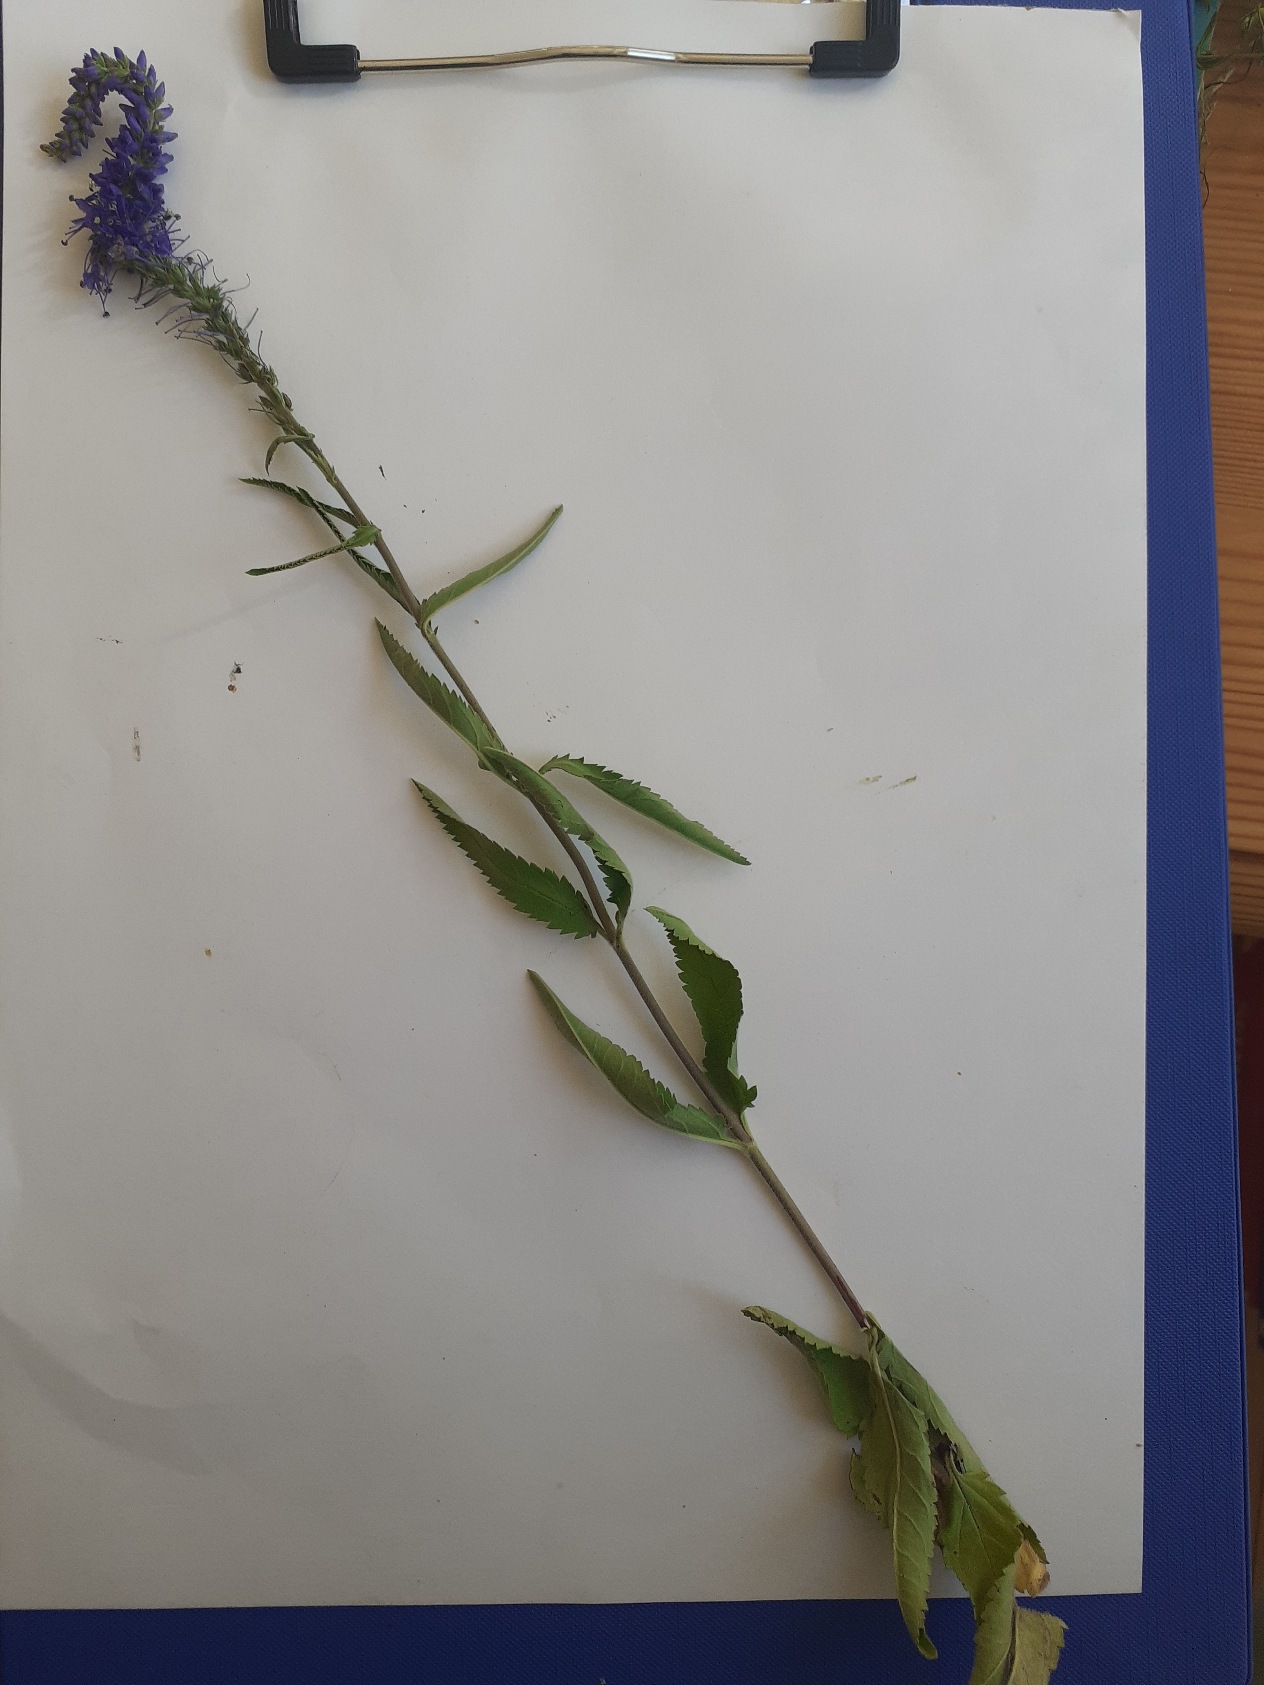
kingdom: Plantae
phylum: Tracheophyta
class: Magnoliopsida
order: Lamiales
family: Plantaginaceae
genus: Veronica
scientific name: Veronica spicata
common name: Aks-ærenpris
